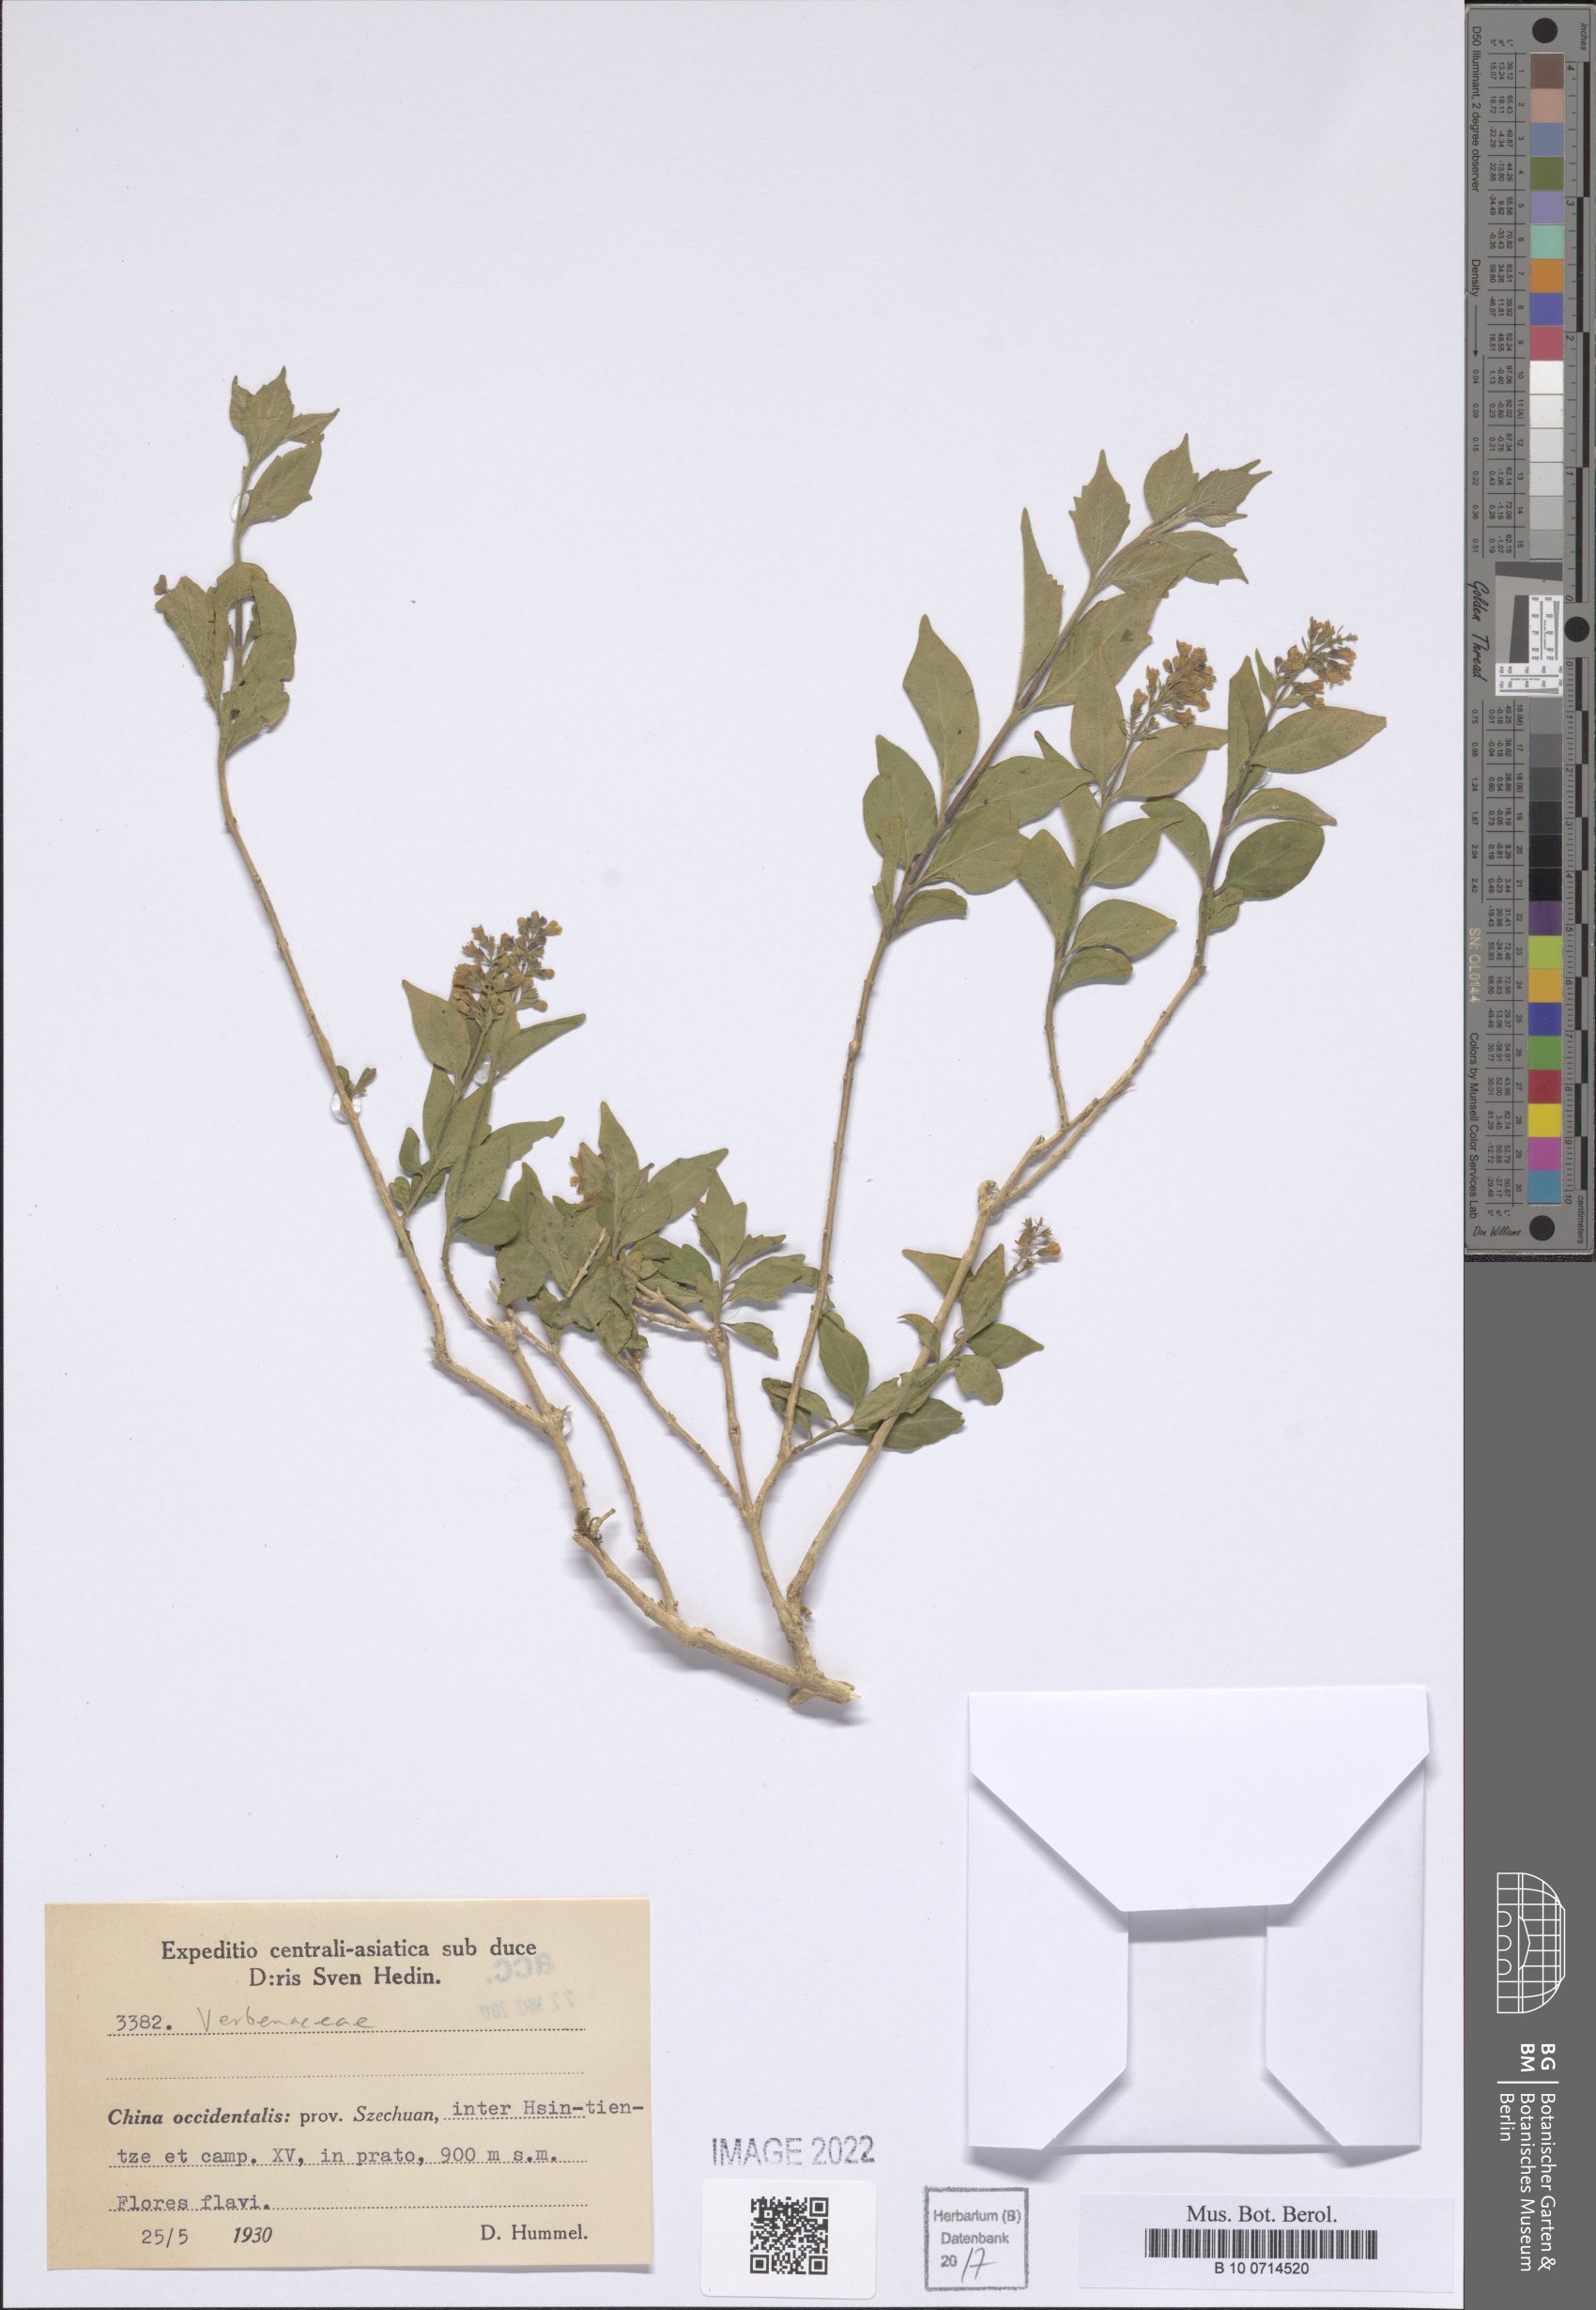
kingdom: Plantae
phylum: Tracheophyta
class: Magnoliopsida
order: Lamiales
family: Verbenaceae
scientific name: Verbenaceae
